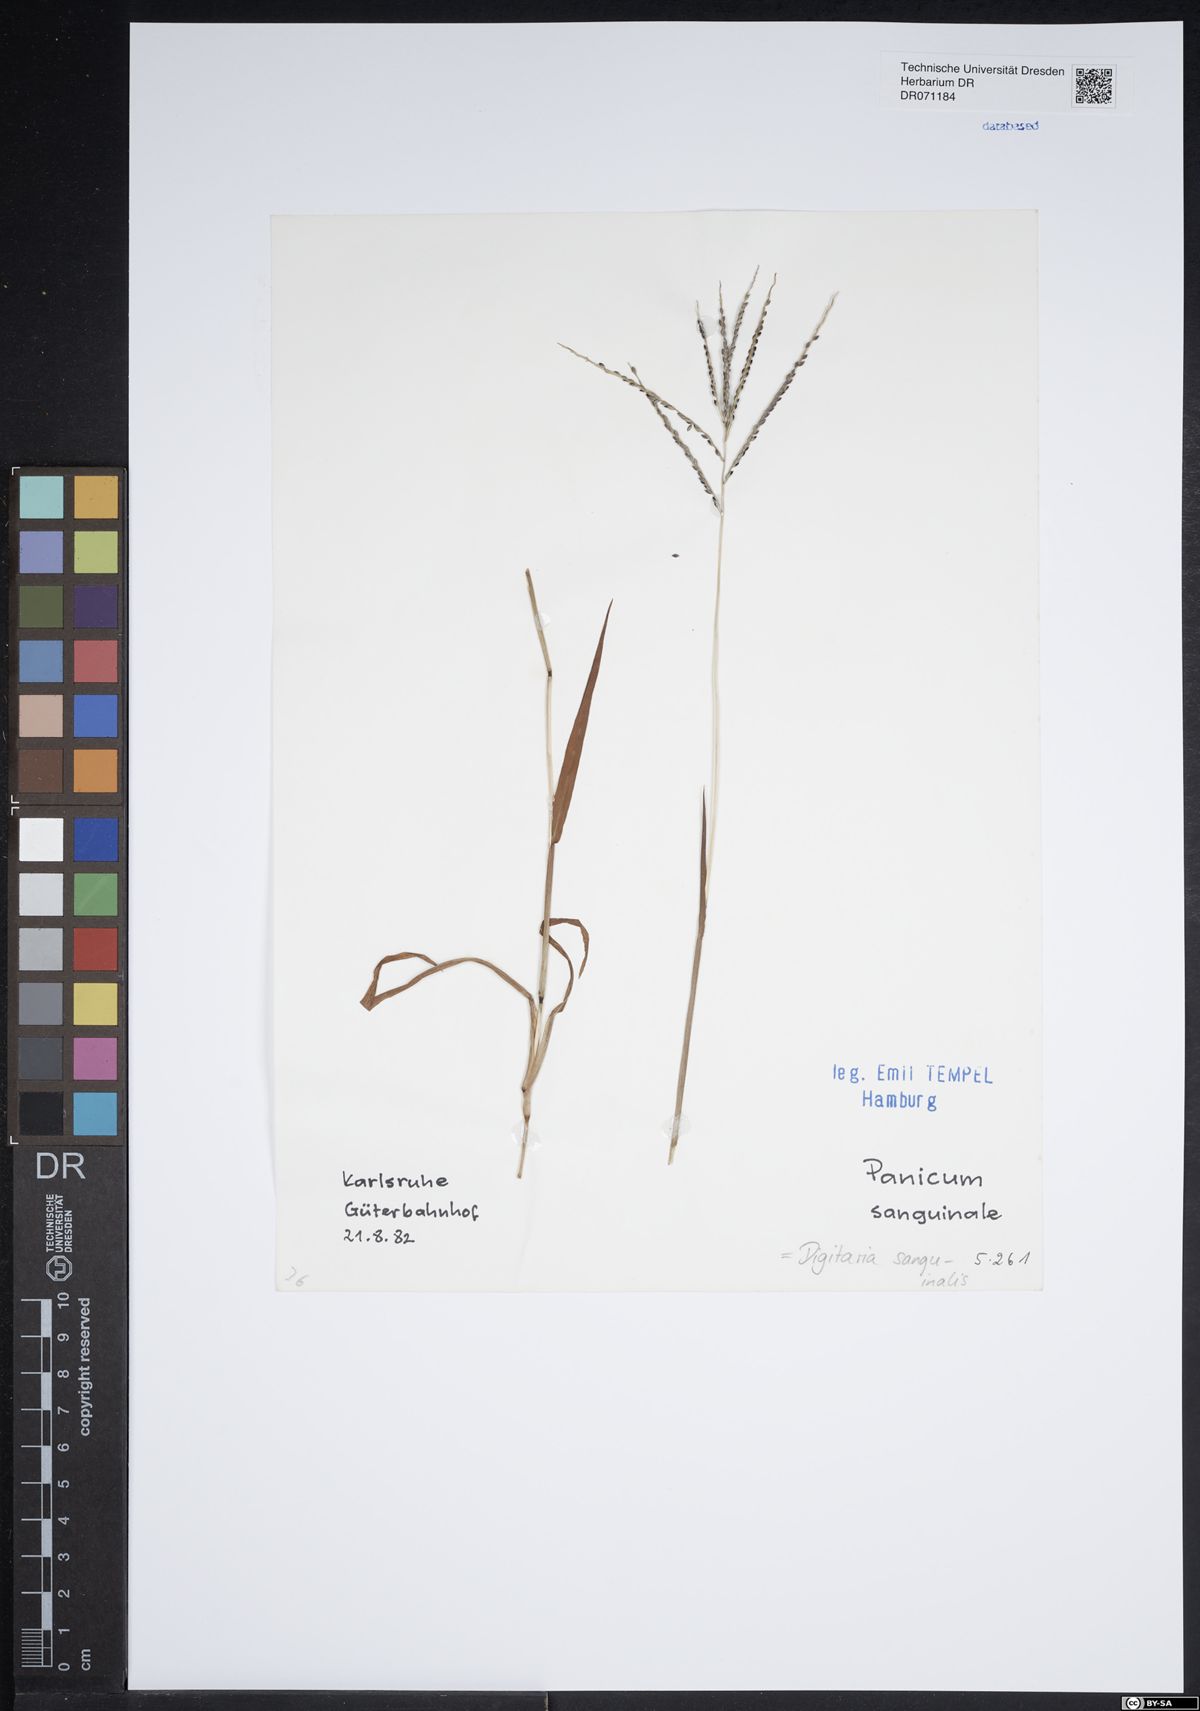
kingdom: Plantae
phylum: Tracheophyta
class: Liliopsida
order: Poales
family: Poaceae
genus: Digitaria
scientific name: Digitaria sanguinalis
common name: Hairy crabgrass
